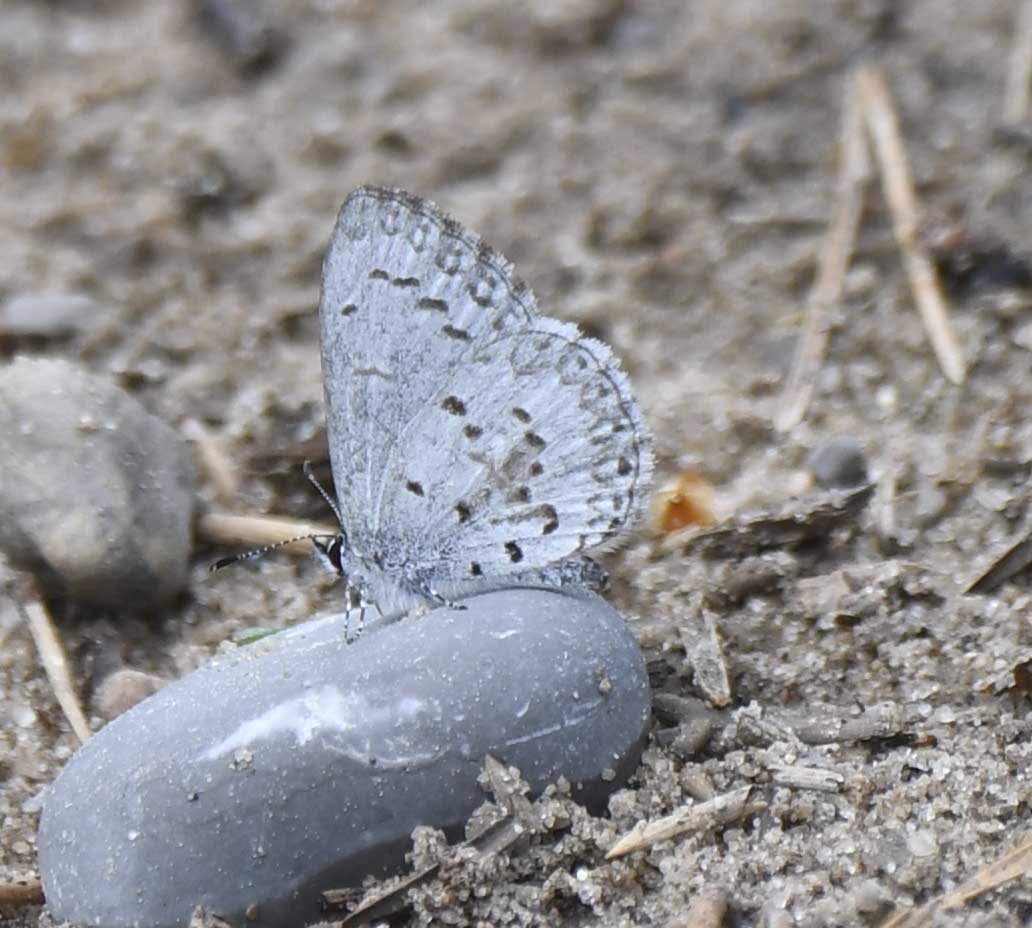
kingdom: Animalia
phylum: Arthropoda
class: Insecta
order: Lepidoptera
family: Lycaenidae
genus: Celastrina
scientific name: Celastrina
